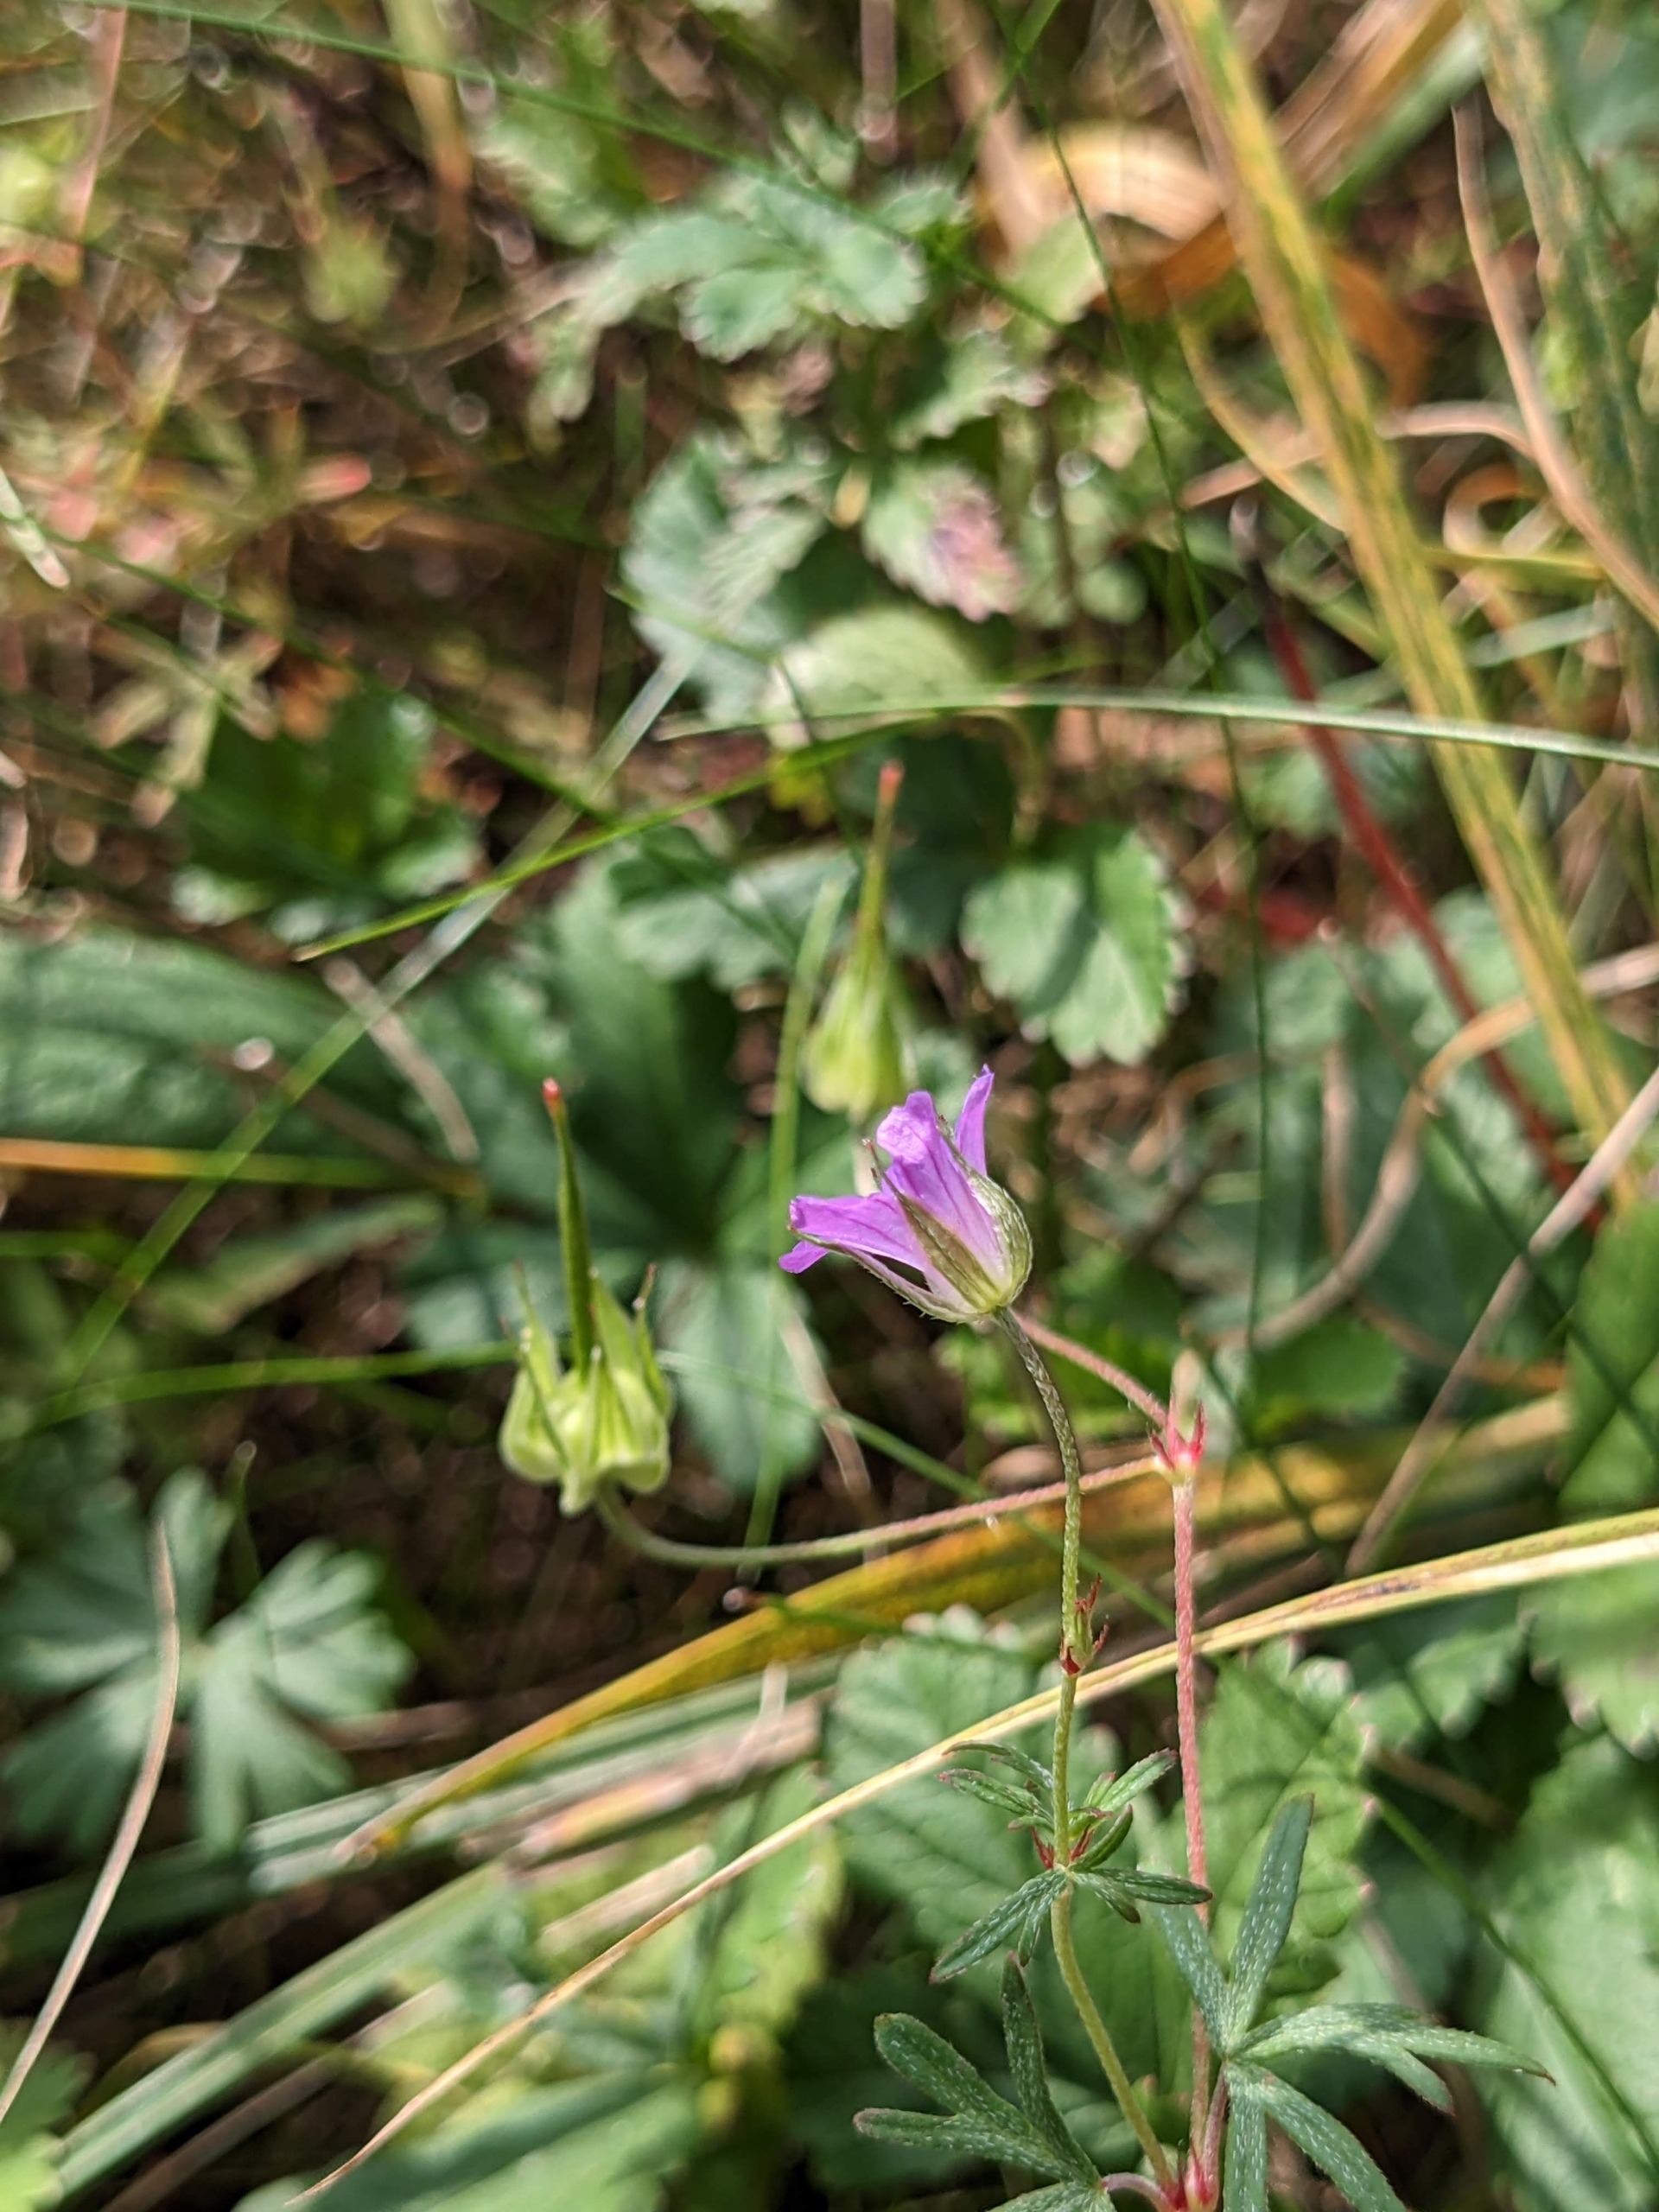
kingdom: Plantae
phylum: Tracheophyta
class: Magnoliopsida
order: Geraniales
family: Geraniaceae
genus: Geranium
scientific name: Geranium columbinum
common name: Storbægret storkenæb
